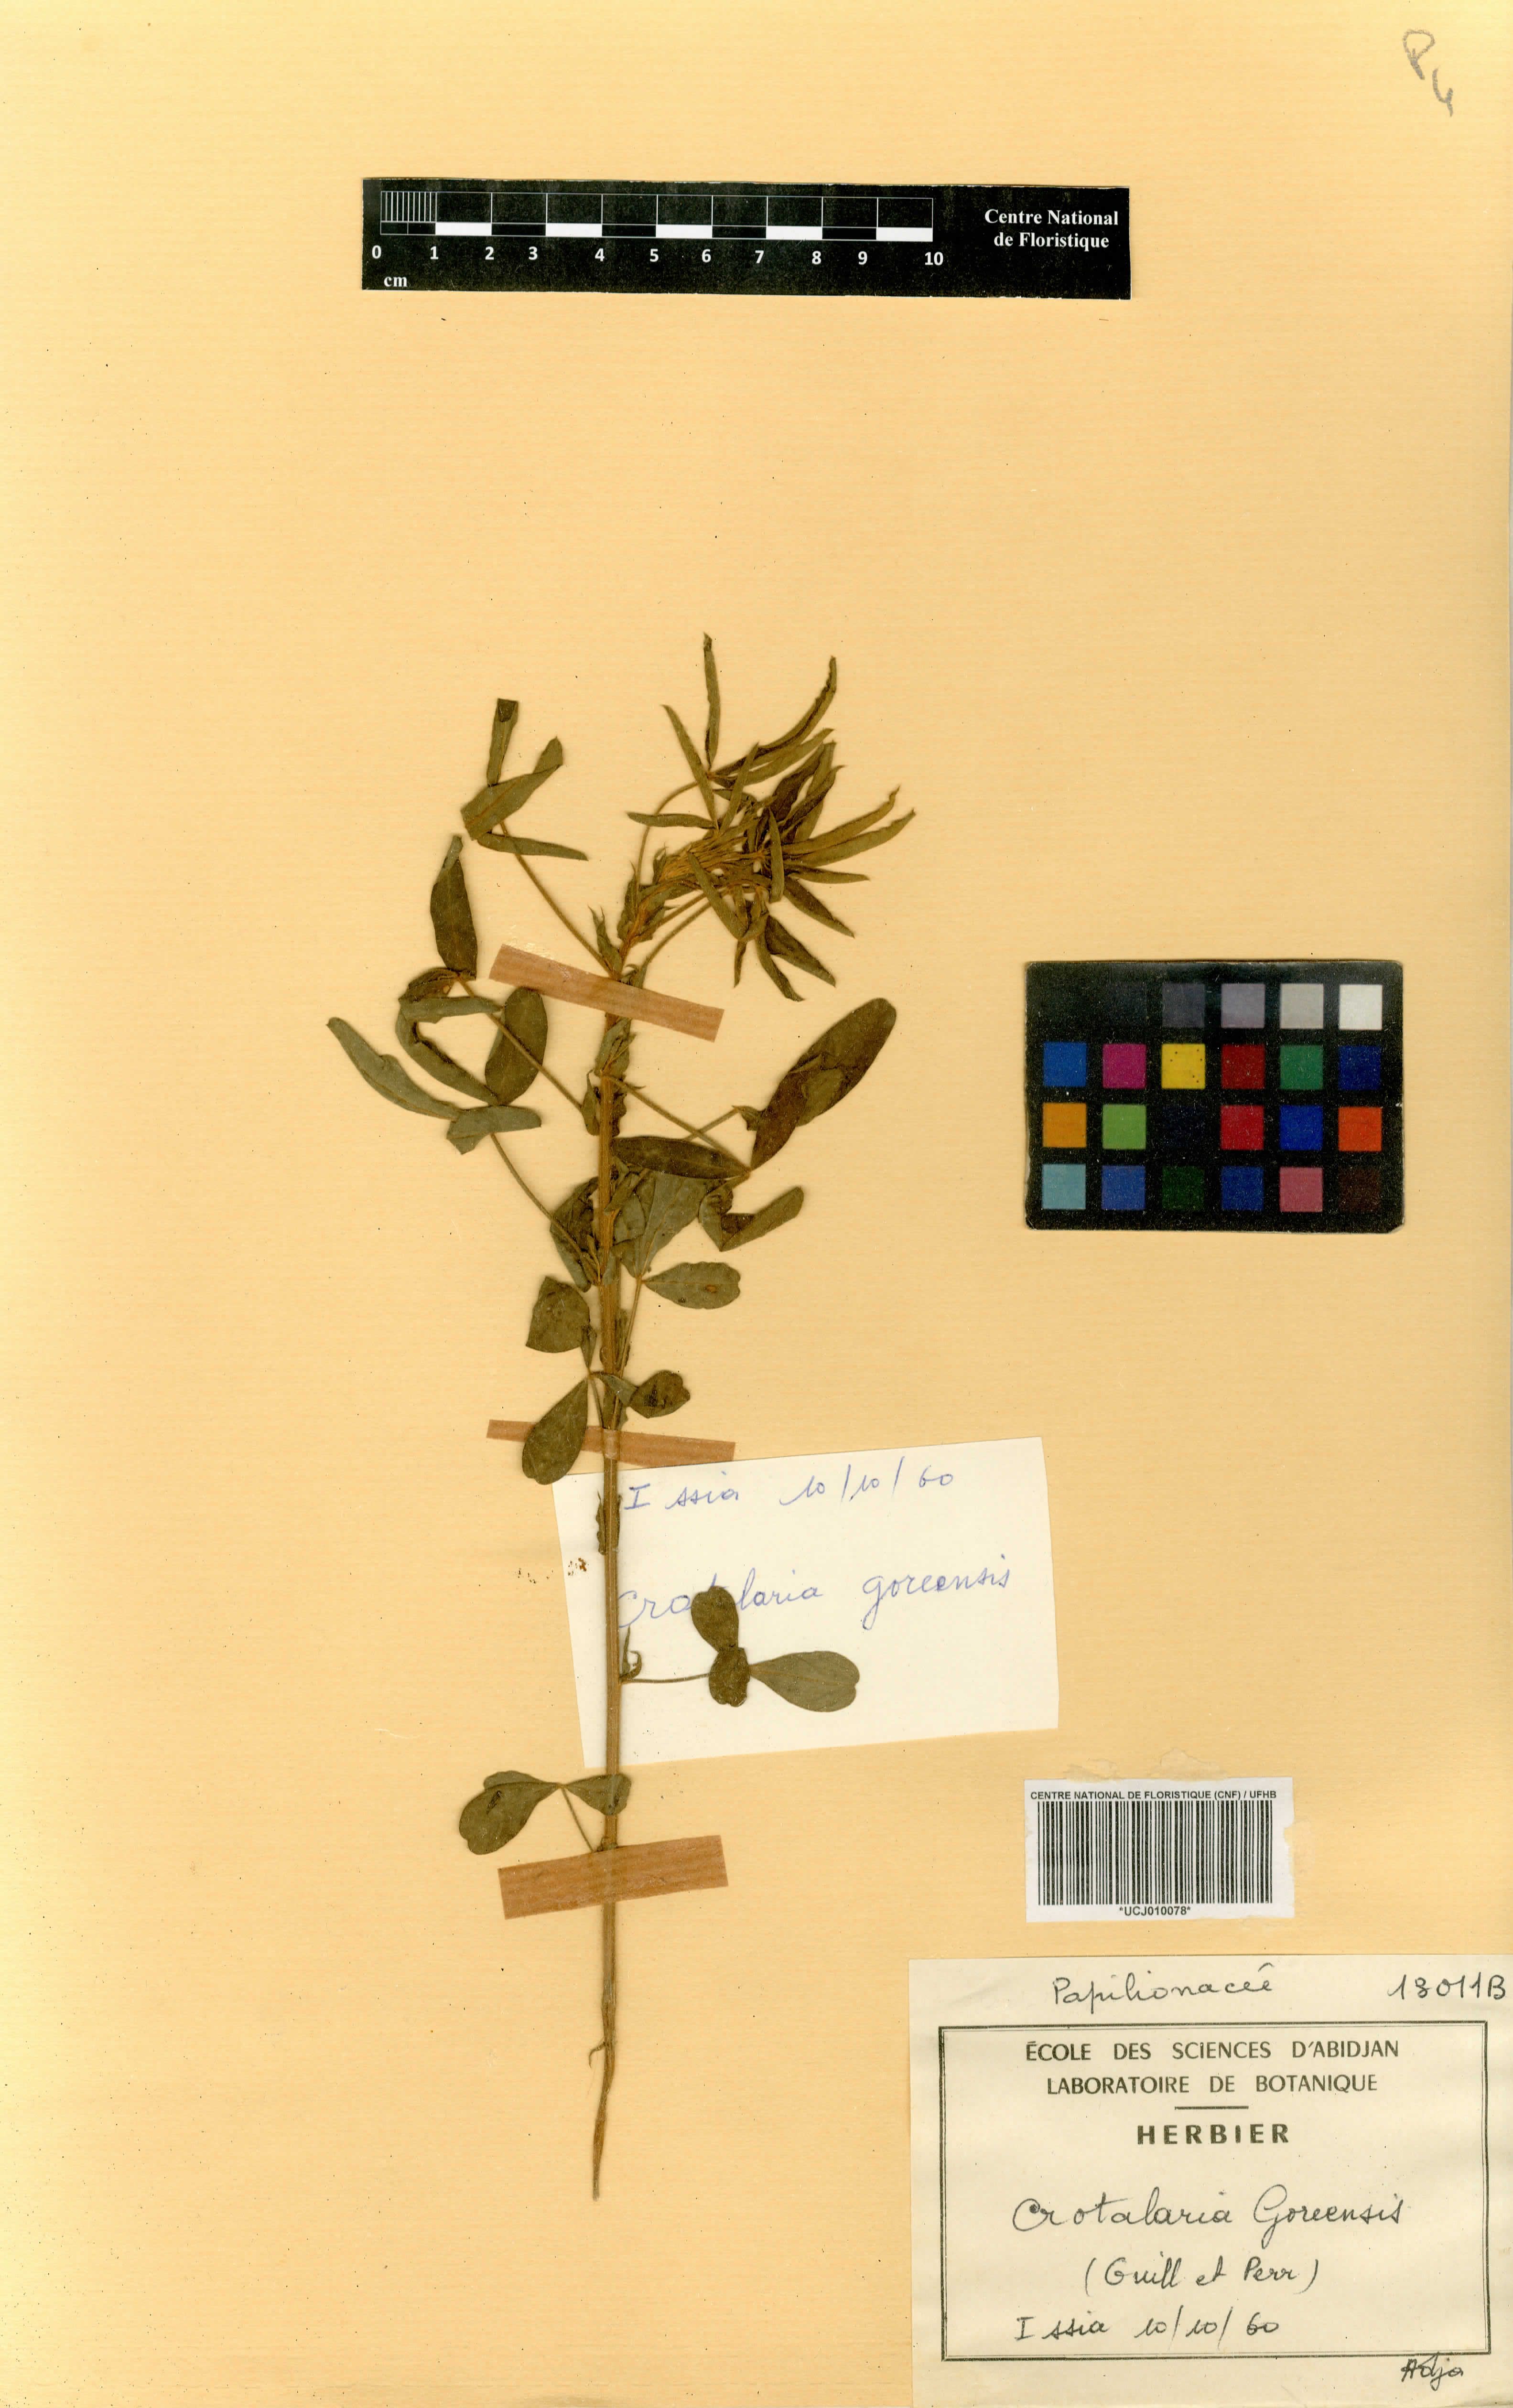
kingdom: Plantae
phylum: Tracheophyta
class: Magnoliopsida
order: Fabales
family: Fabaceae
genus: Crotalaria
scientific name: Crotalaria goreensis
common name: Gambia-pea
